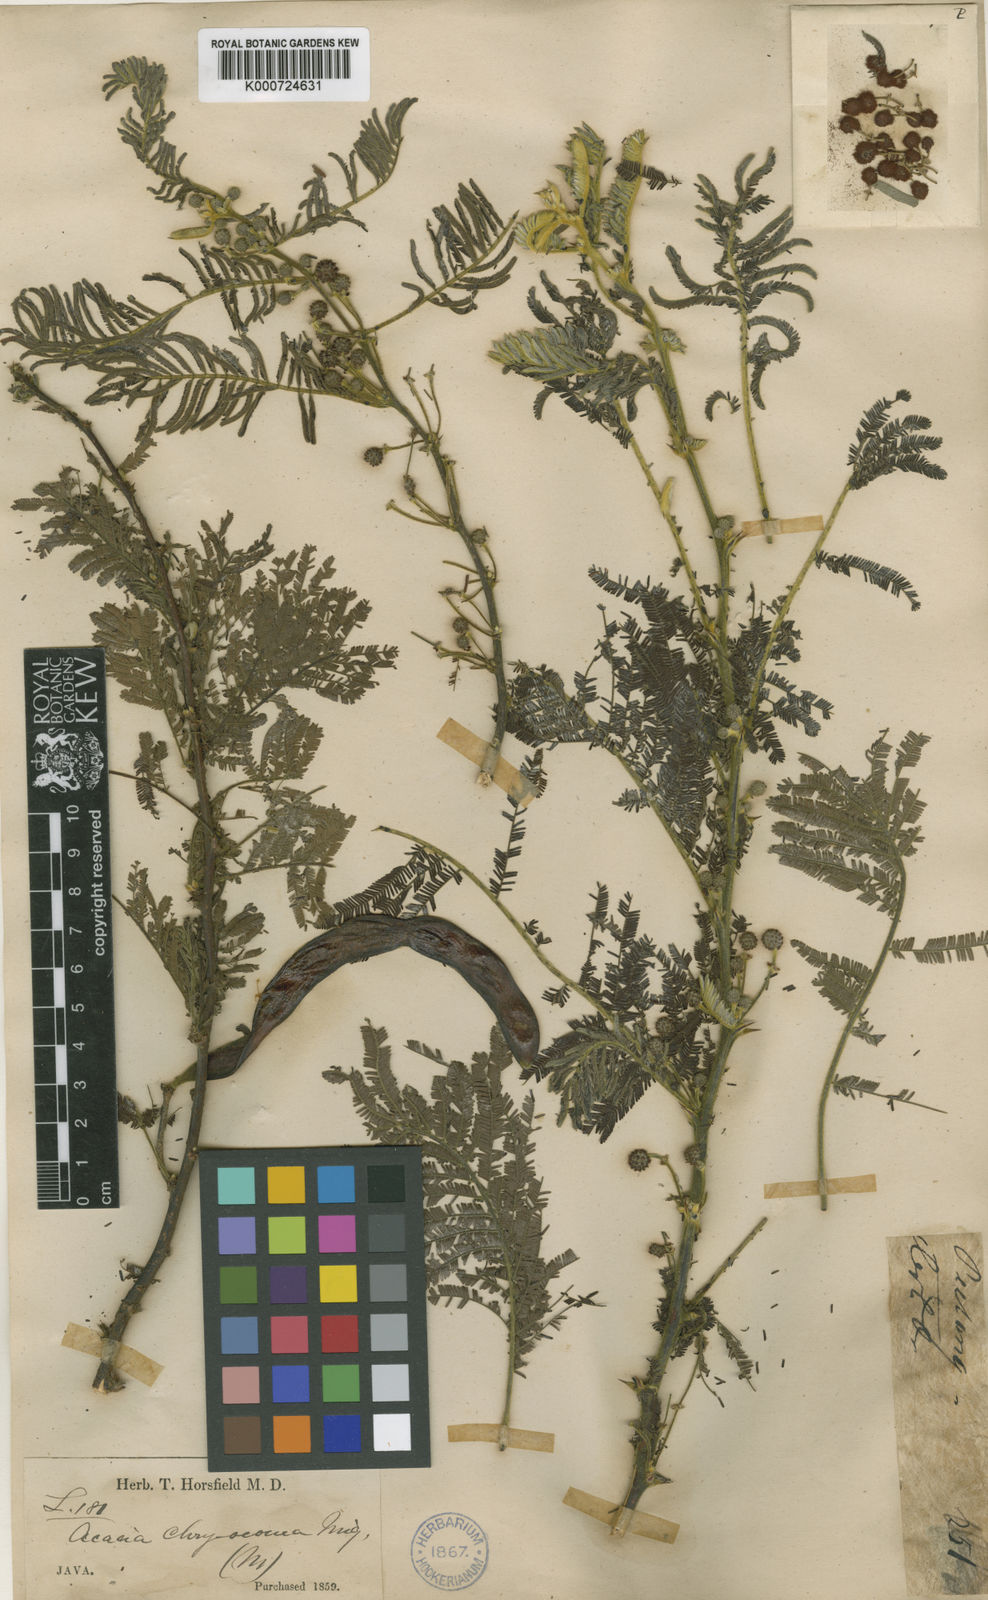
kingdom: Plantae
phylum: Tracheophyta
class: Magnoliopsida
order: Fabales
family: Fabaceae
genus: Vachellia
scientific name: Vachellia tomentosa
